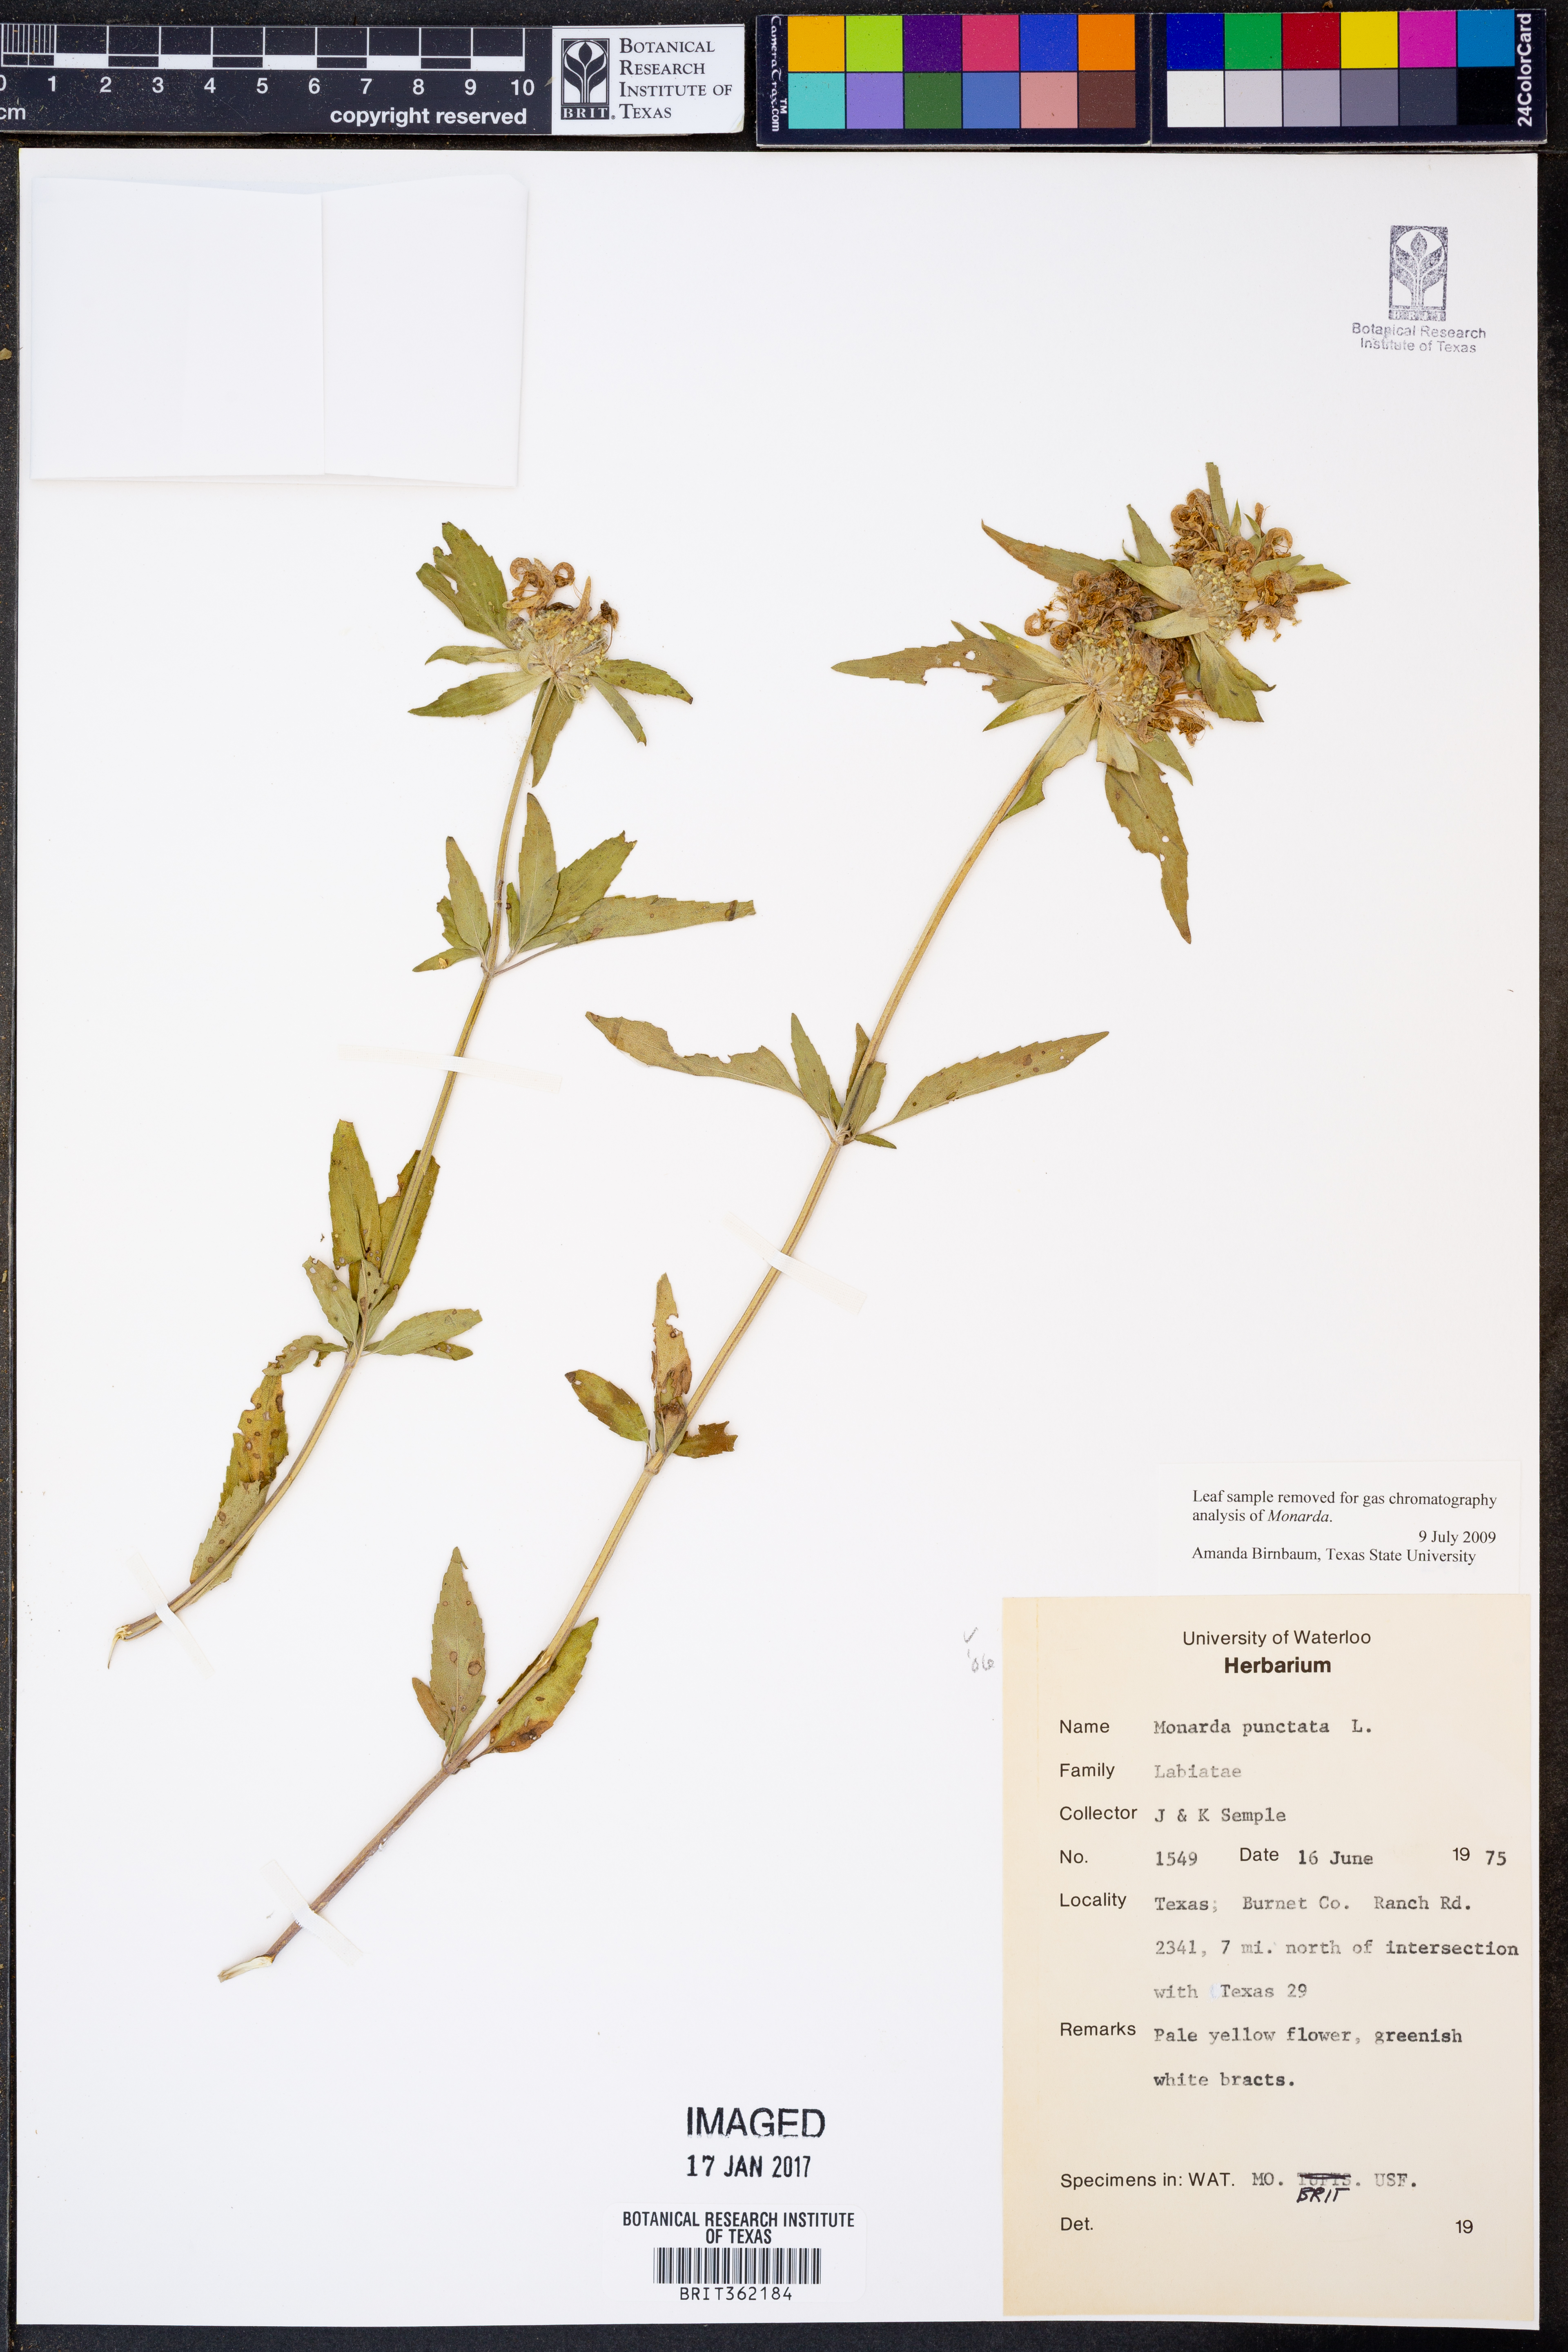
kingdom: Plantae
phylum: Tracheophyta
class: Magnoliopsida
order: Lamiales
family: Lamiaceae
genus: Monarda
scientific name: Monarda punctata
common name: Dotted monarda
